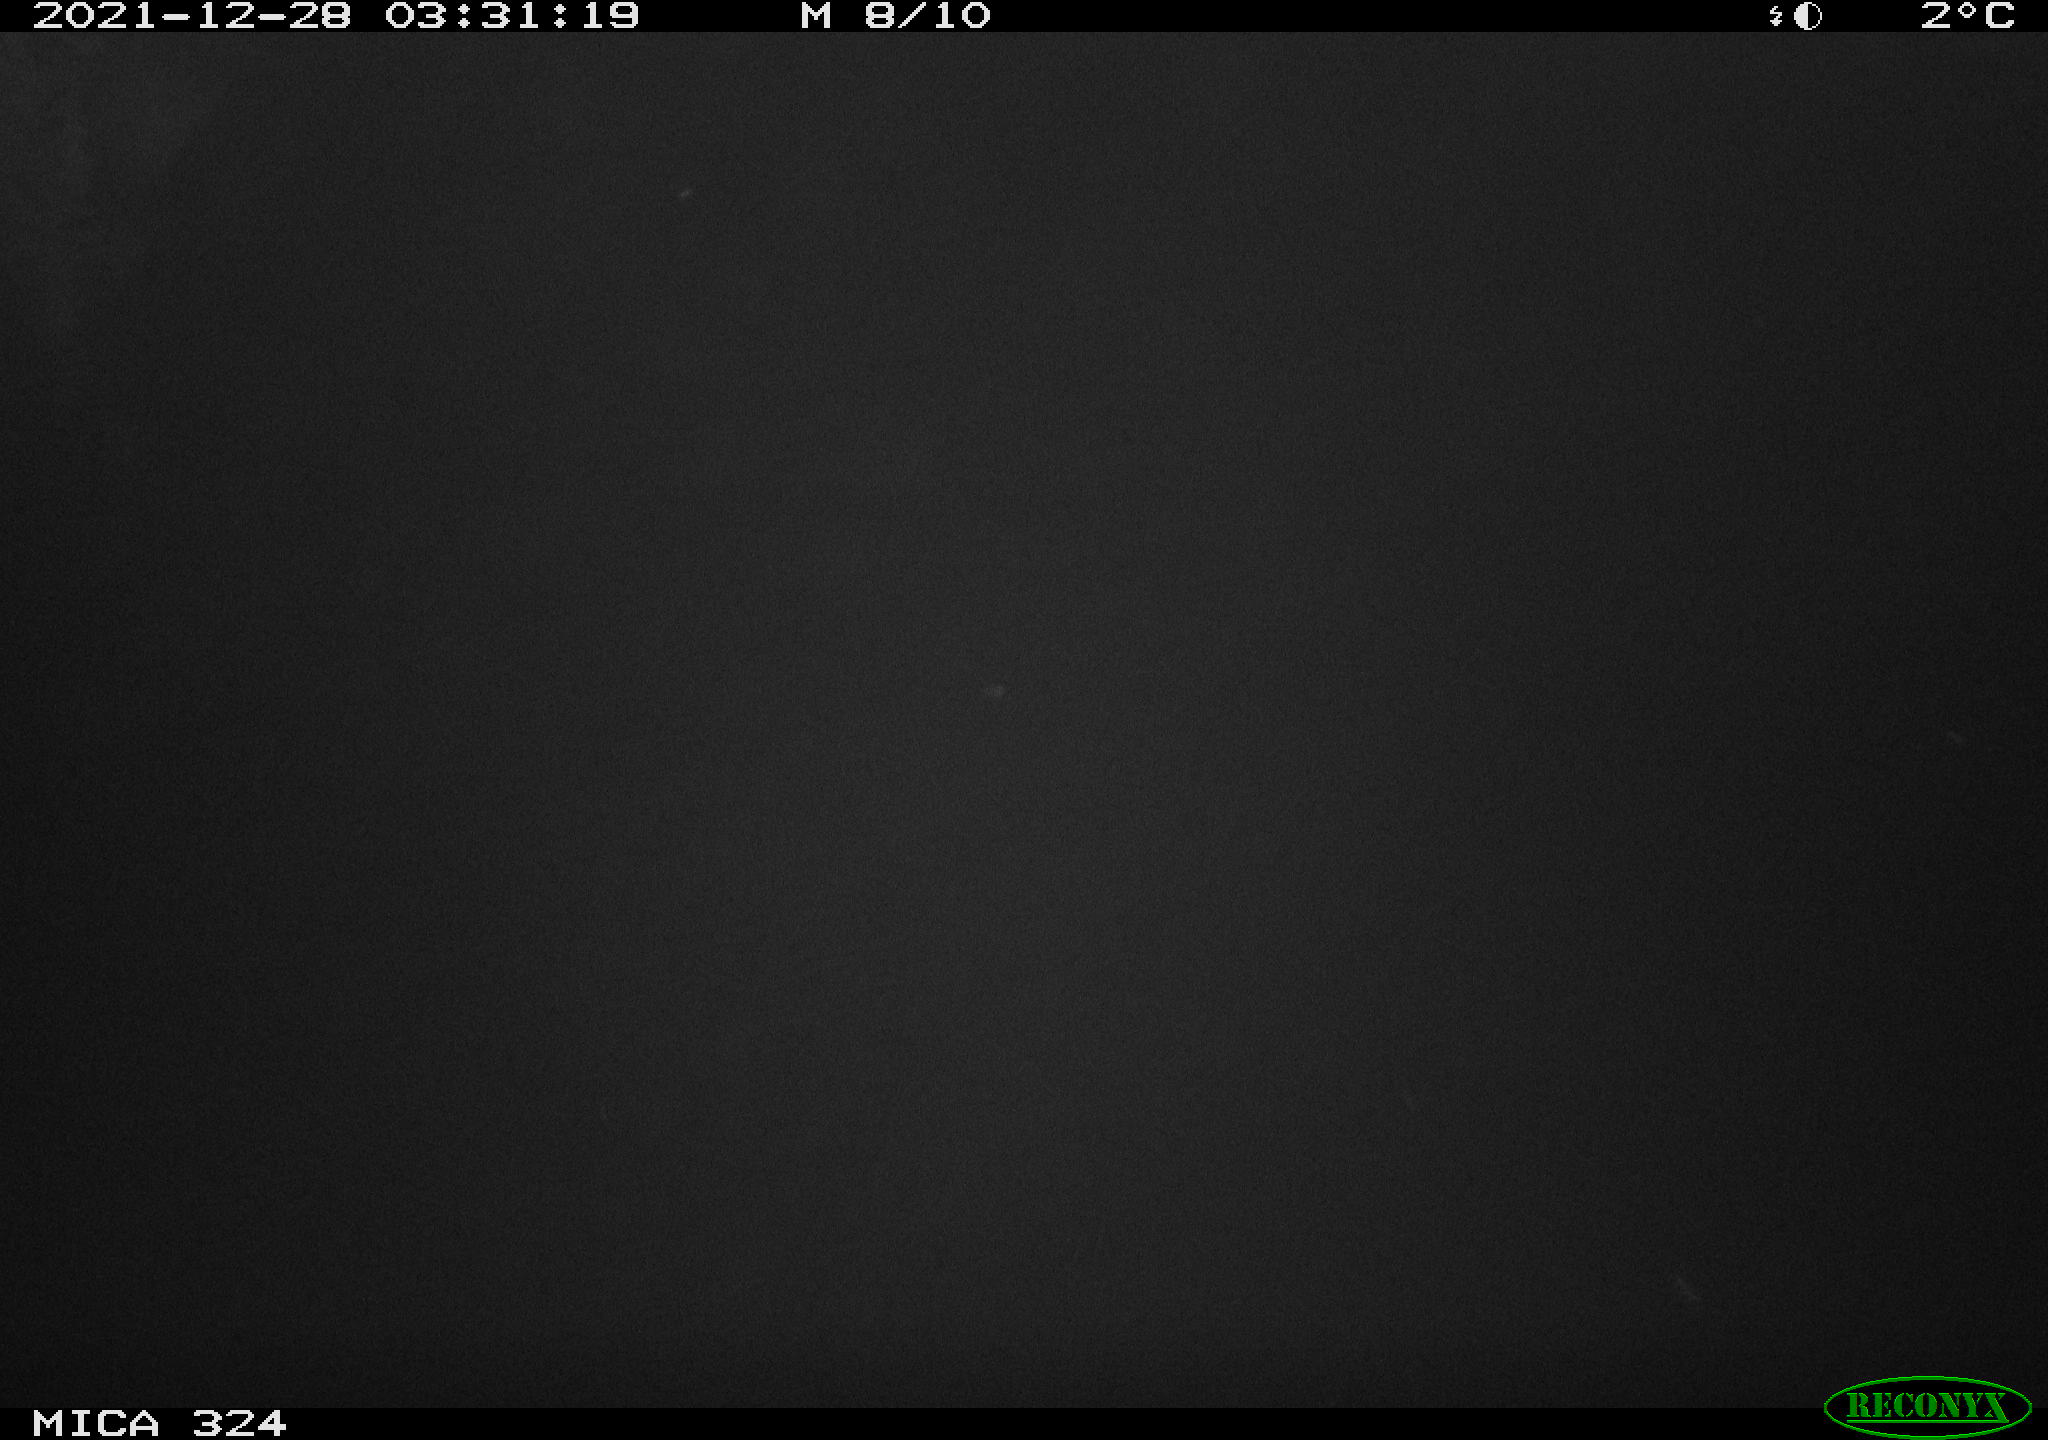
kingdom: Animalia
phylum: Chordata
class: Mammalia
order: Rodentia
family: Cricetidae
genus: Ondatra
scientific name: Ondatra zibethicus
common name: Muskrat
